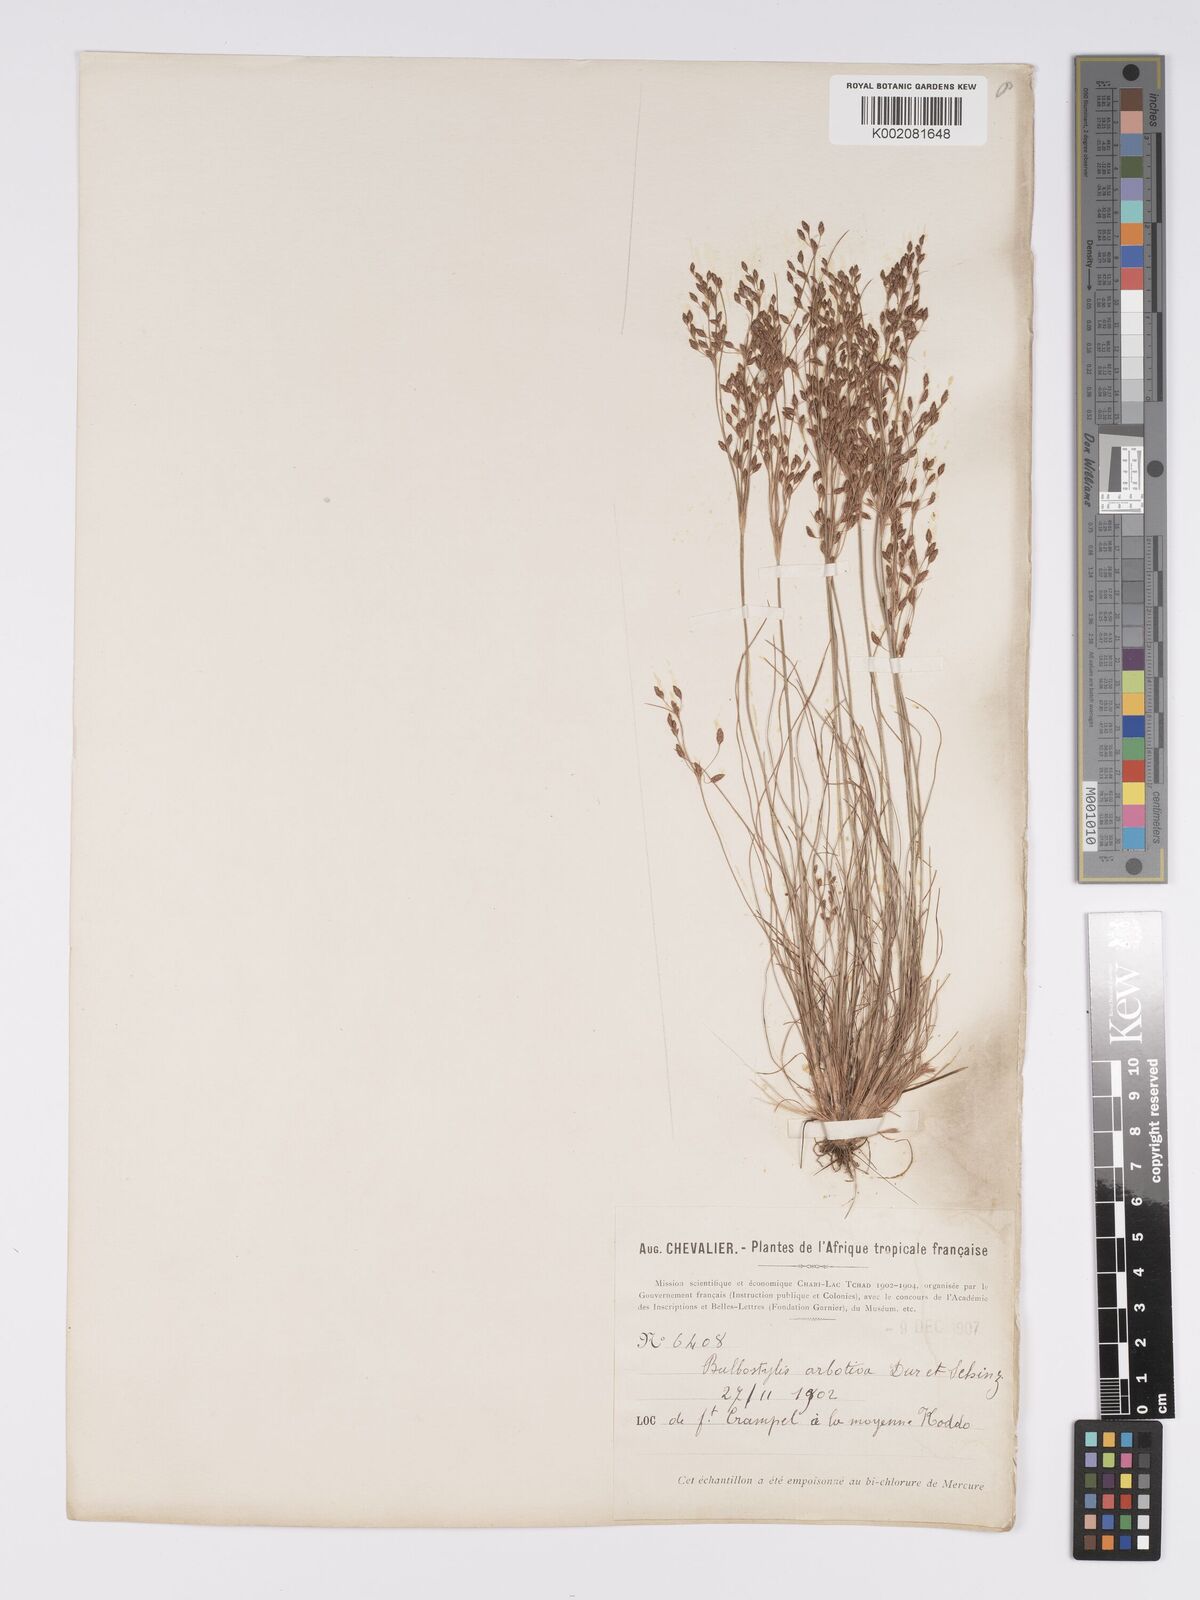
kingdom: Plantae
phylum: Tracheophyta
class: Liliopsida
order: Poales
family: Cyperaceae
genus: Bulbostylis
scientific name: Bulbostylis abortiva
